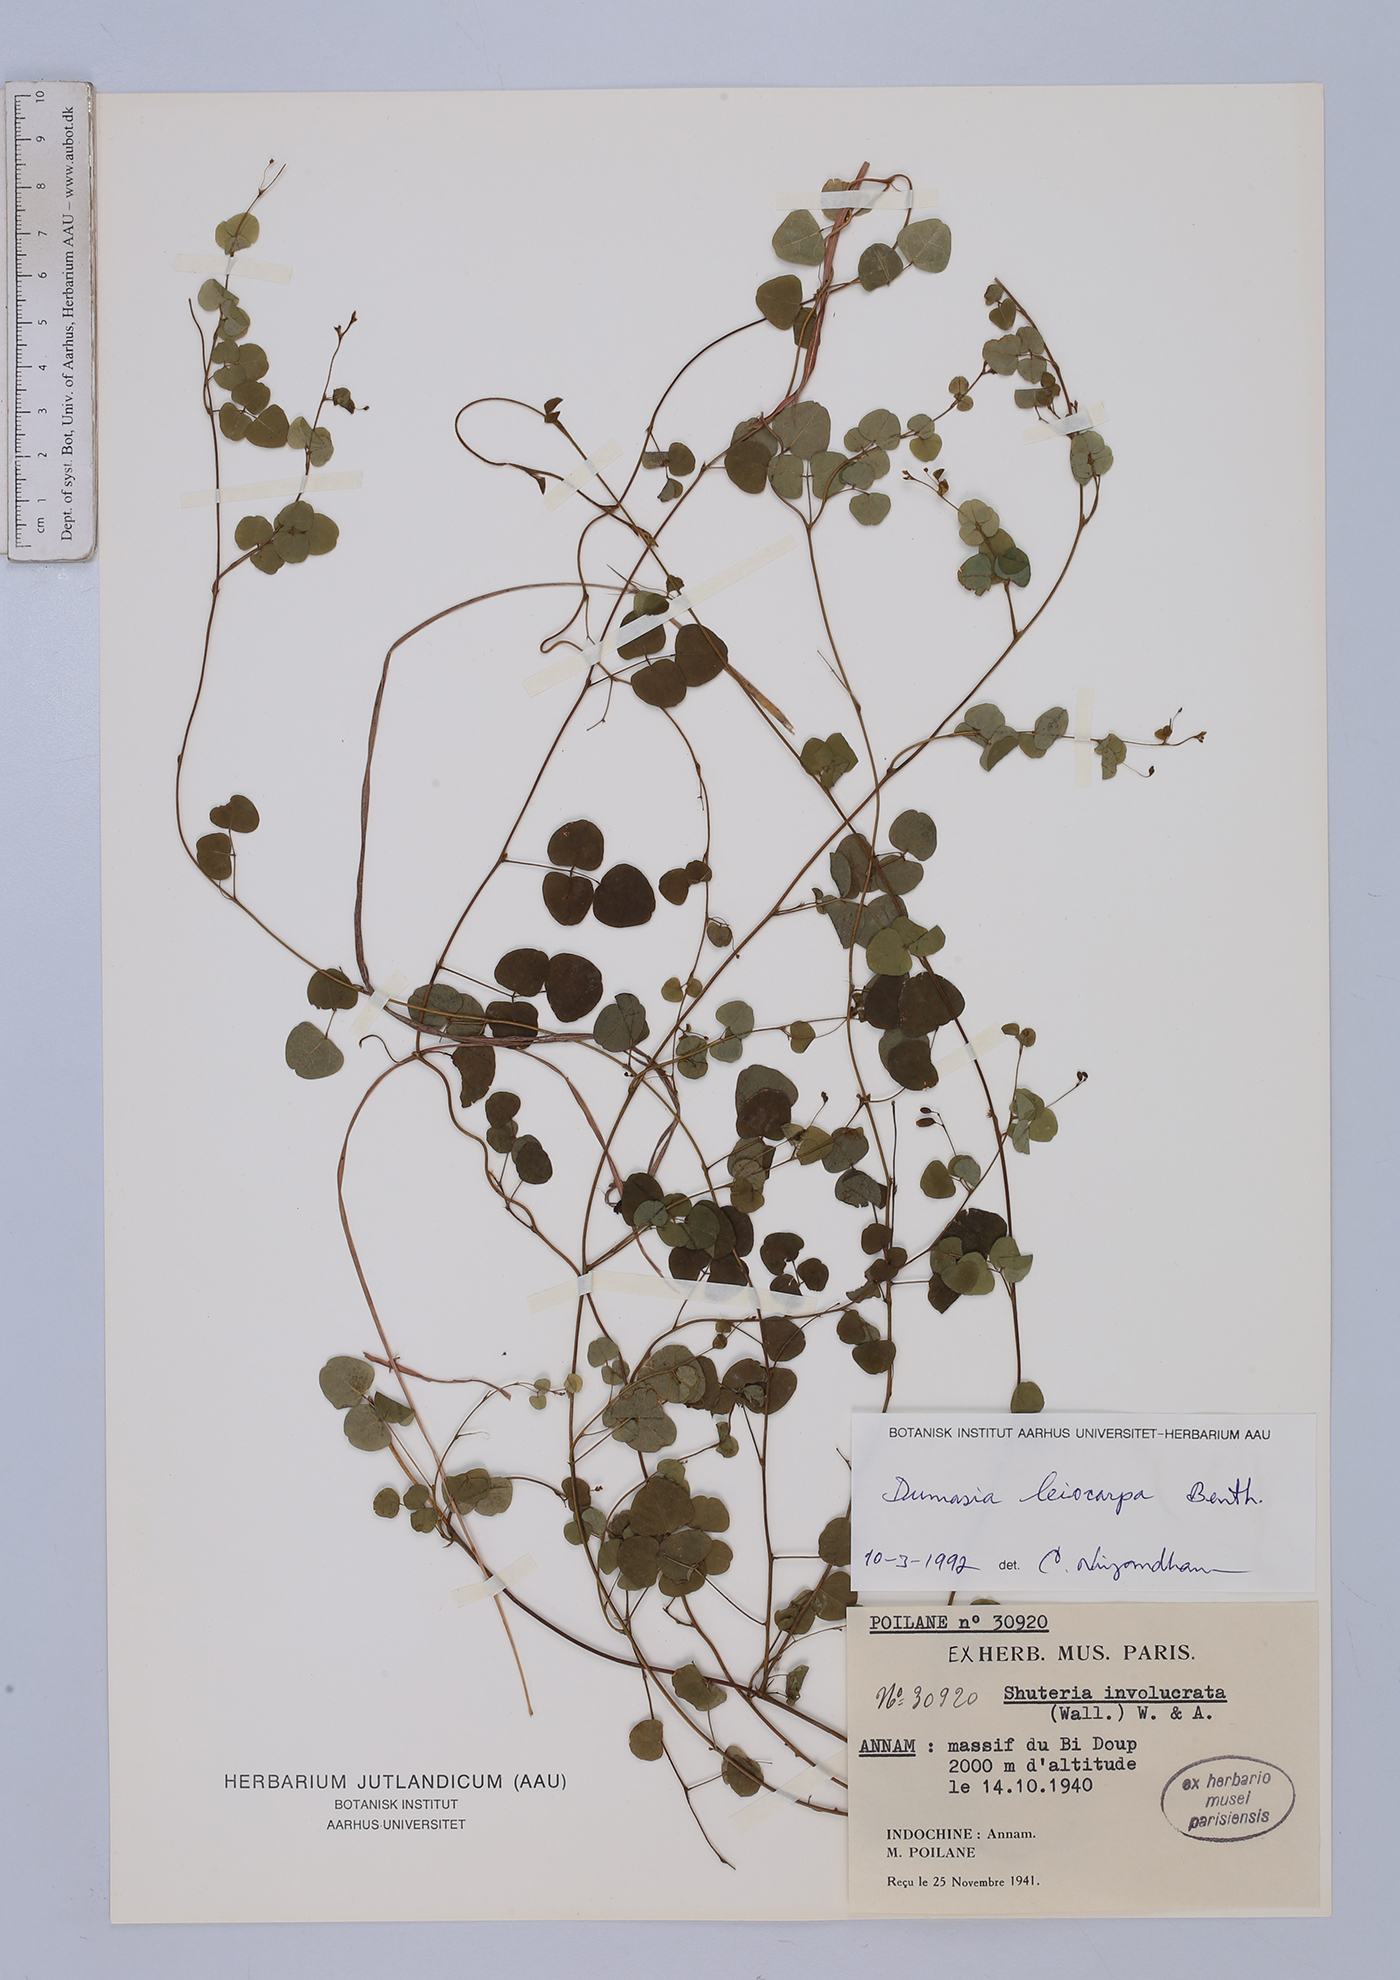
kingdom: Plantae
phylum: Tracheophyta
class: Magnoliopsida
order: Fabales
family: Fabaceae
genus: Dumasia
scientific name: Dumasia villosa
